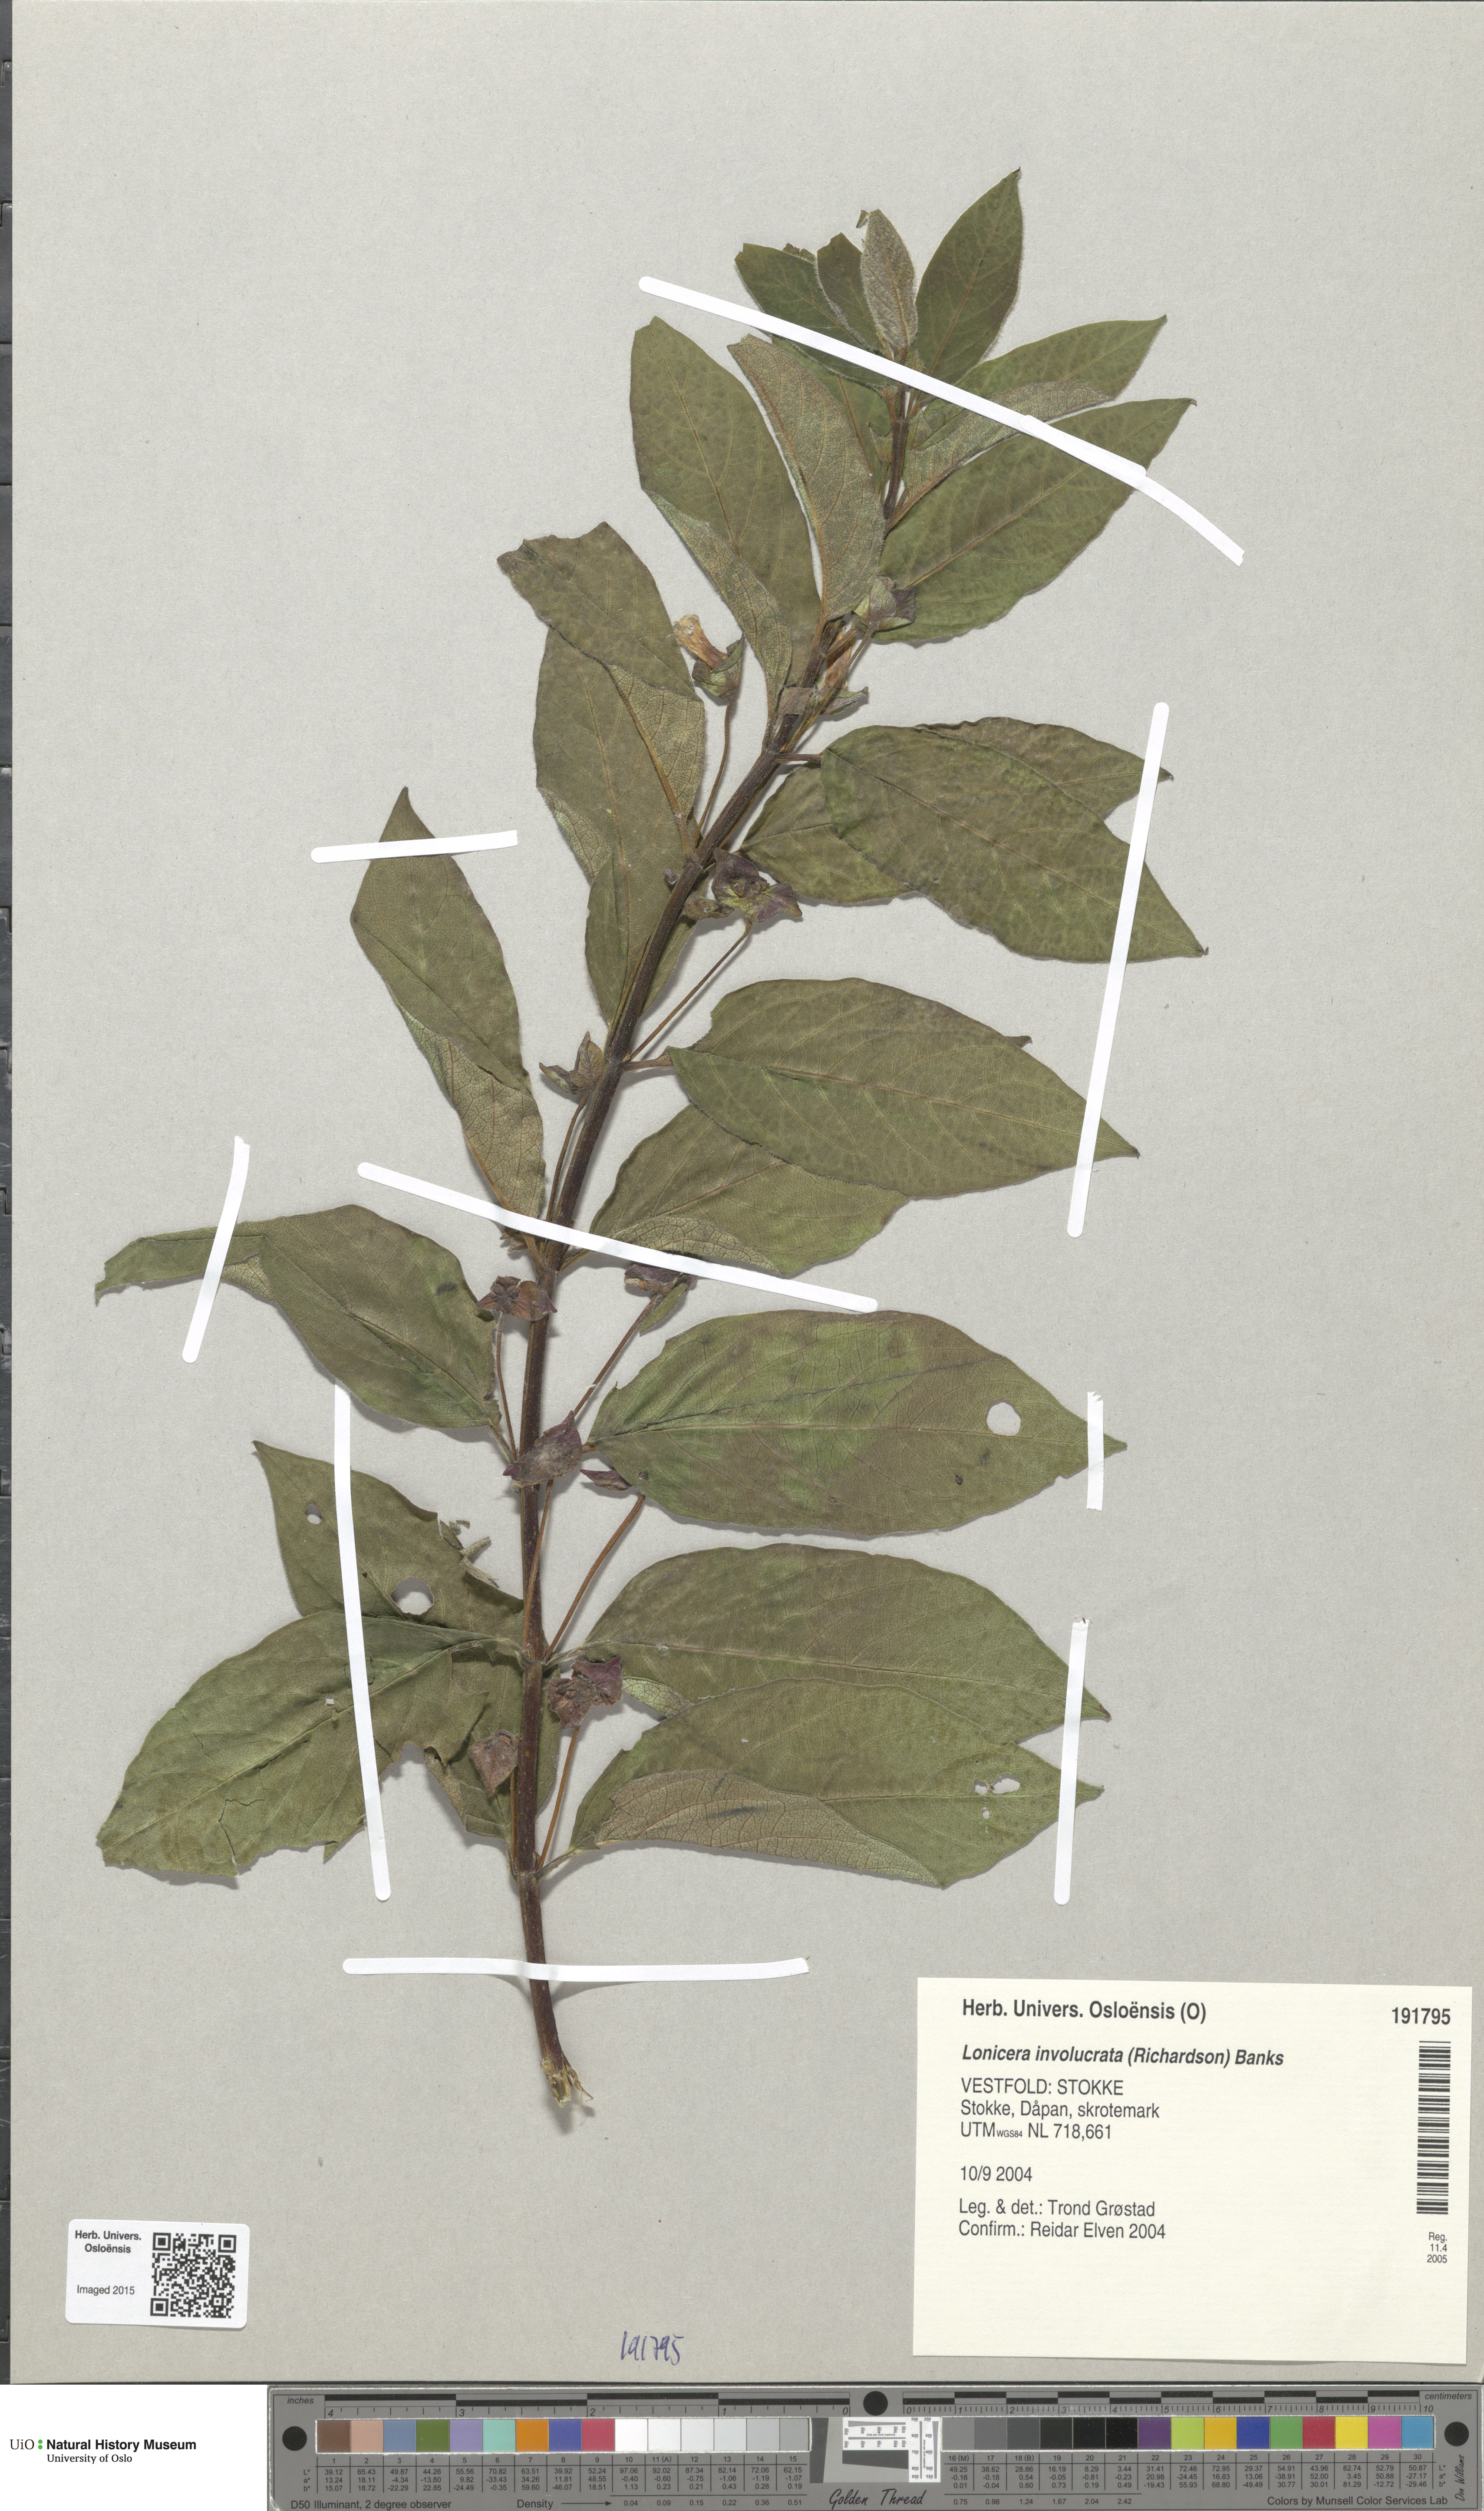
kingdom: Plantae
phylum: Tracheophyta
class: Magnoliopsida
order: Dipsacales
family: Caprifoliaceae
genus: Lonicera
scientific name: Lonicera involucrata
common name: Californian honeysuckle
